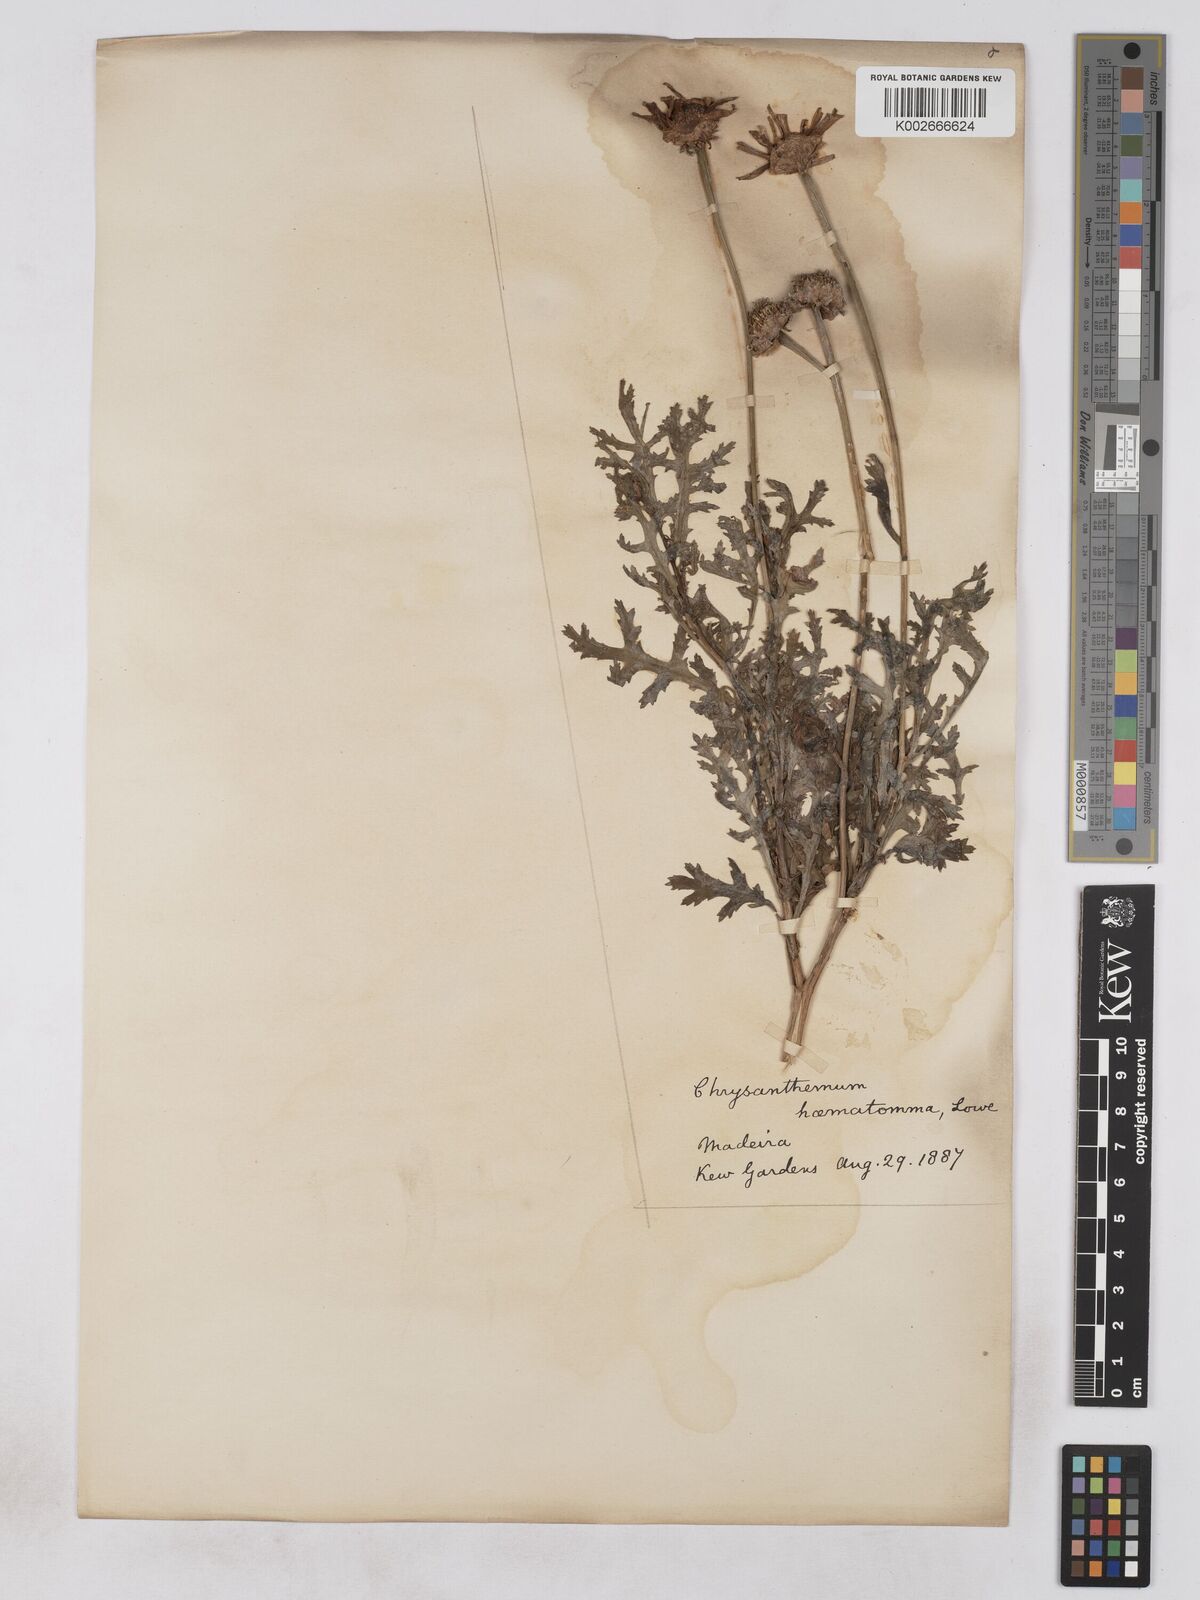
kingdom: Plantae
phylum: Tracheophyta
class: Magnoliopsida
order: Asterales
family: Asteraceae
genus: Argyranthemum
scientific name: Argyranthemum haematomma
